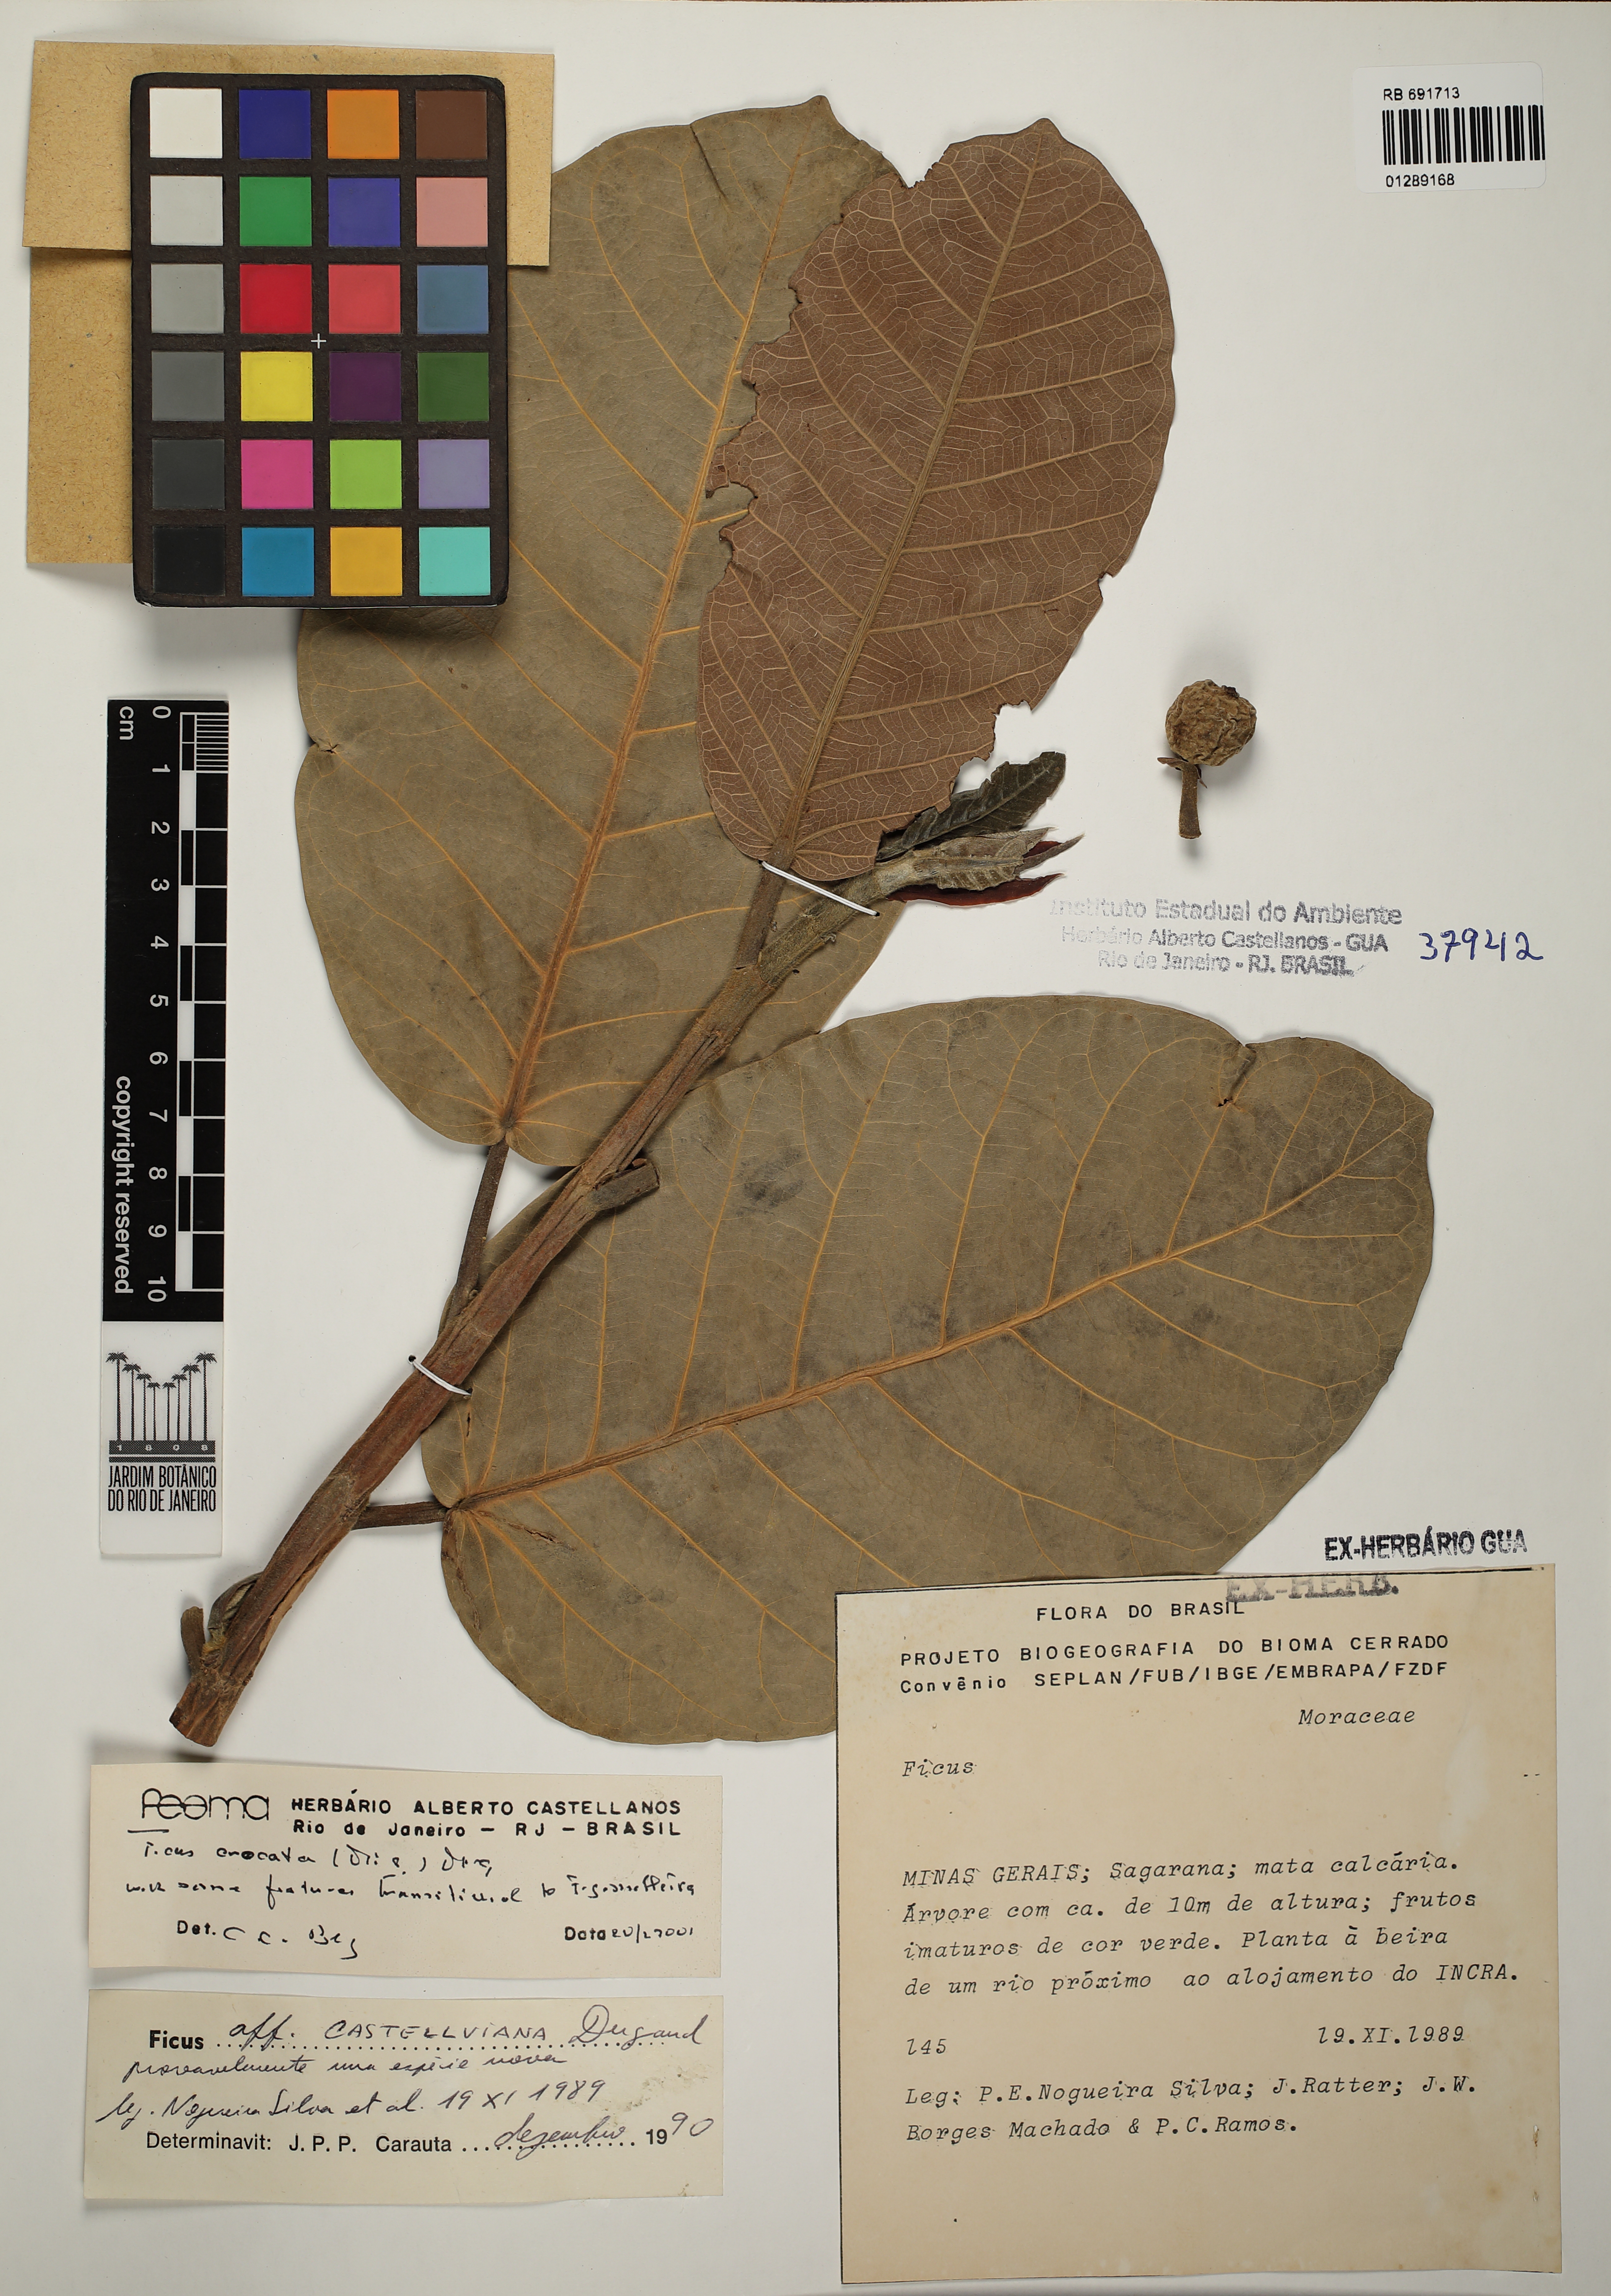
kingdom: Plantae
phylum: Tracheophyta
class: Magnoliopsida
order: Rosales
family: Moraceae
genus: Ficus
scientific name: Ficus crocata
